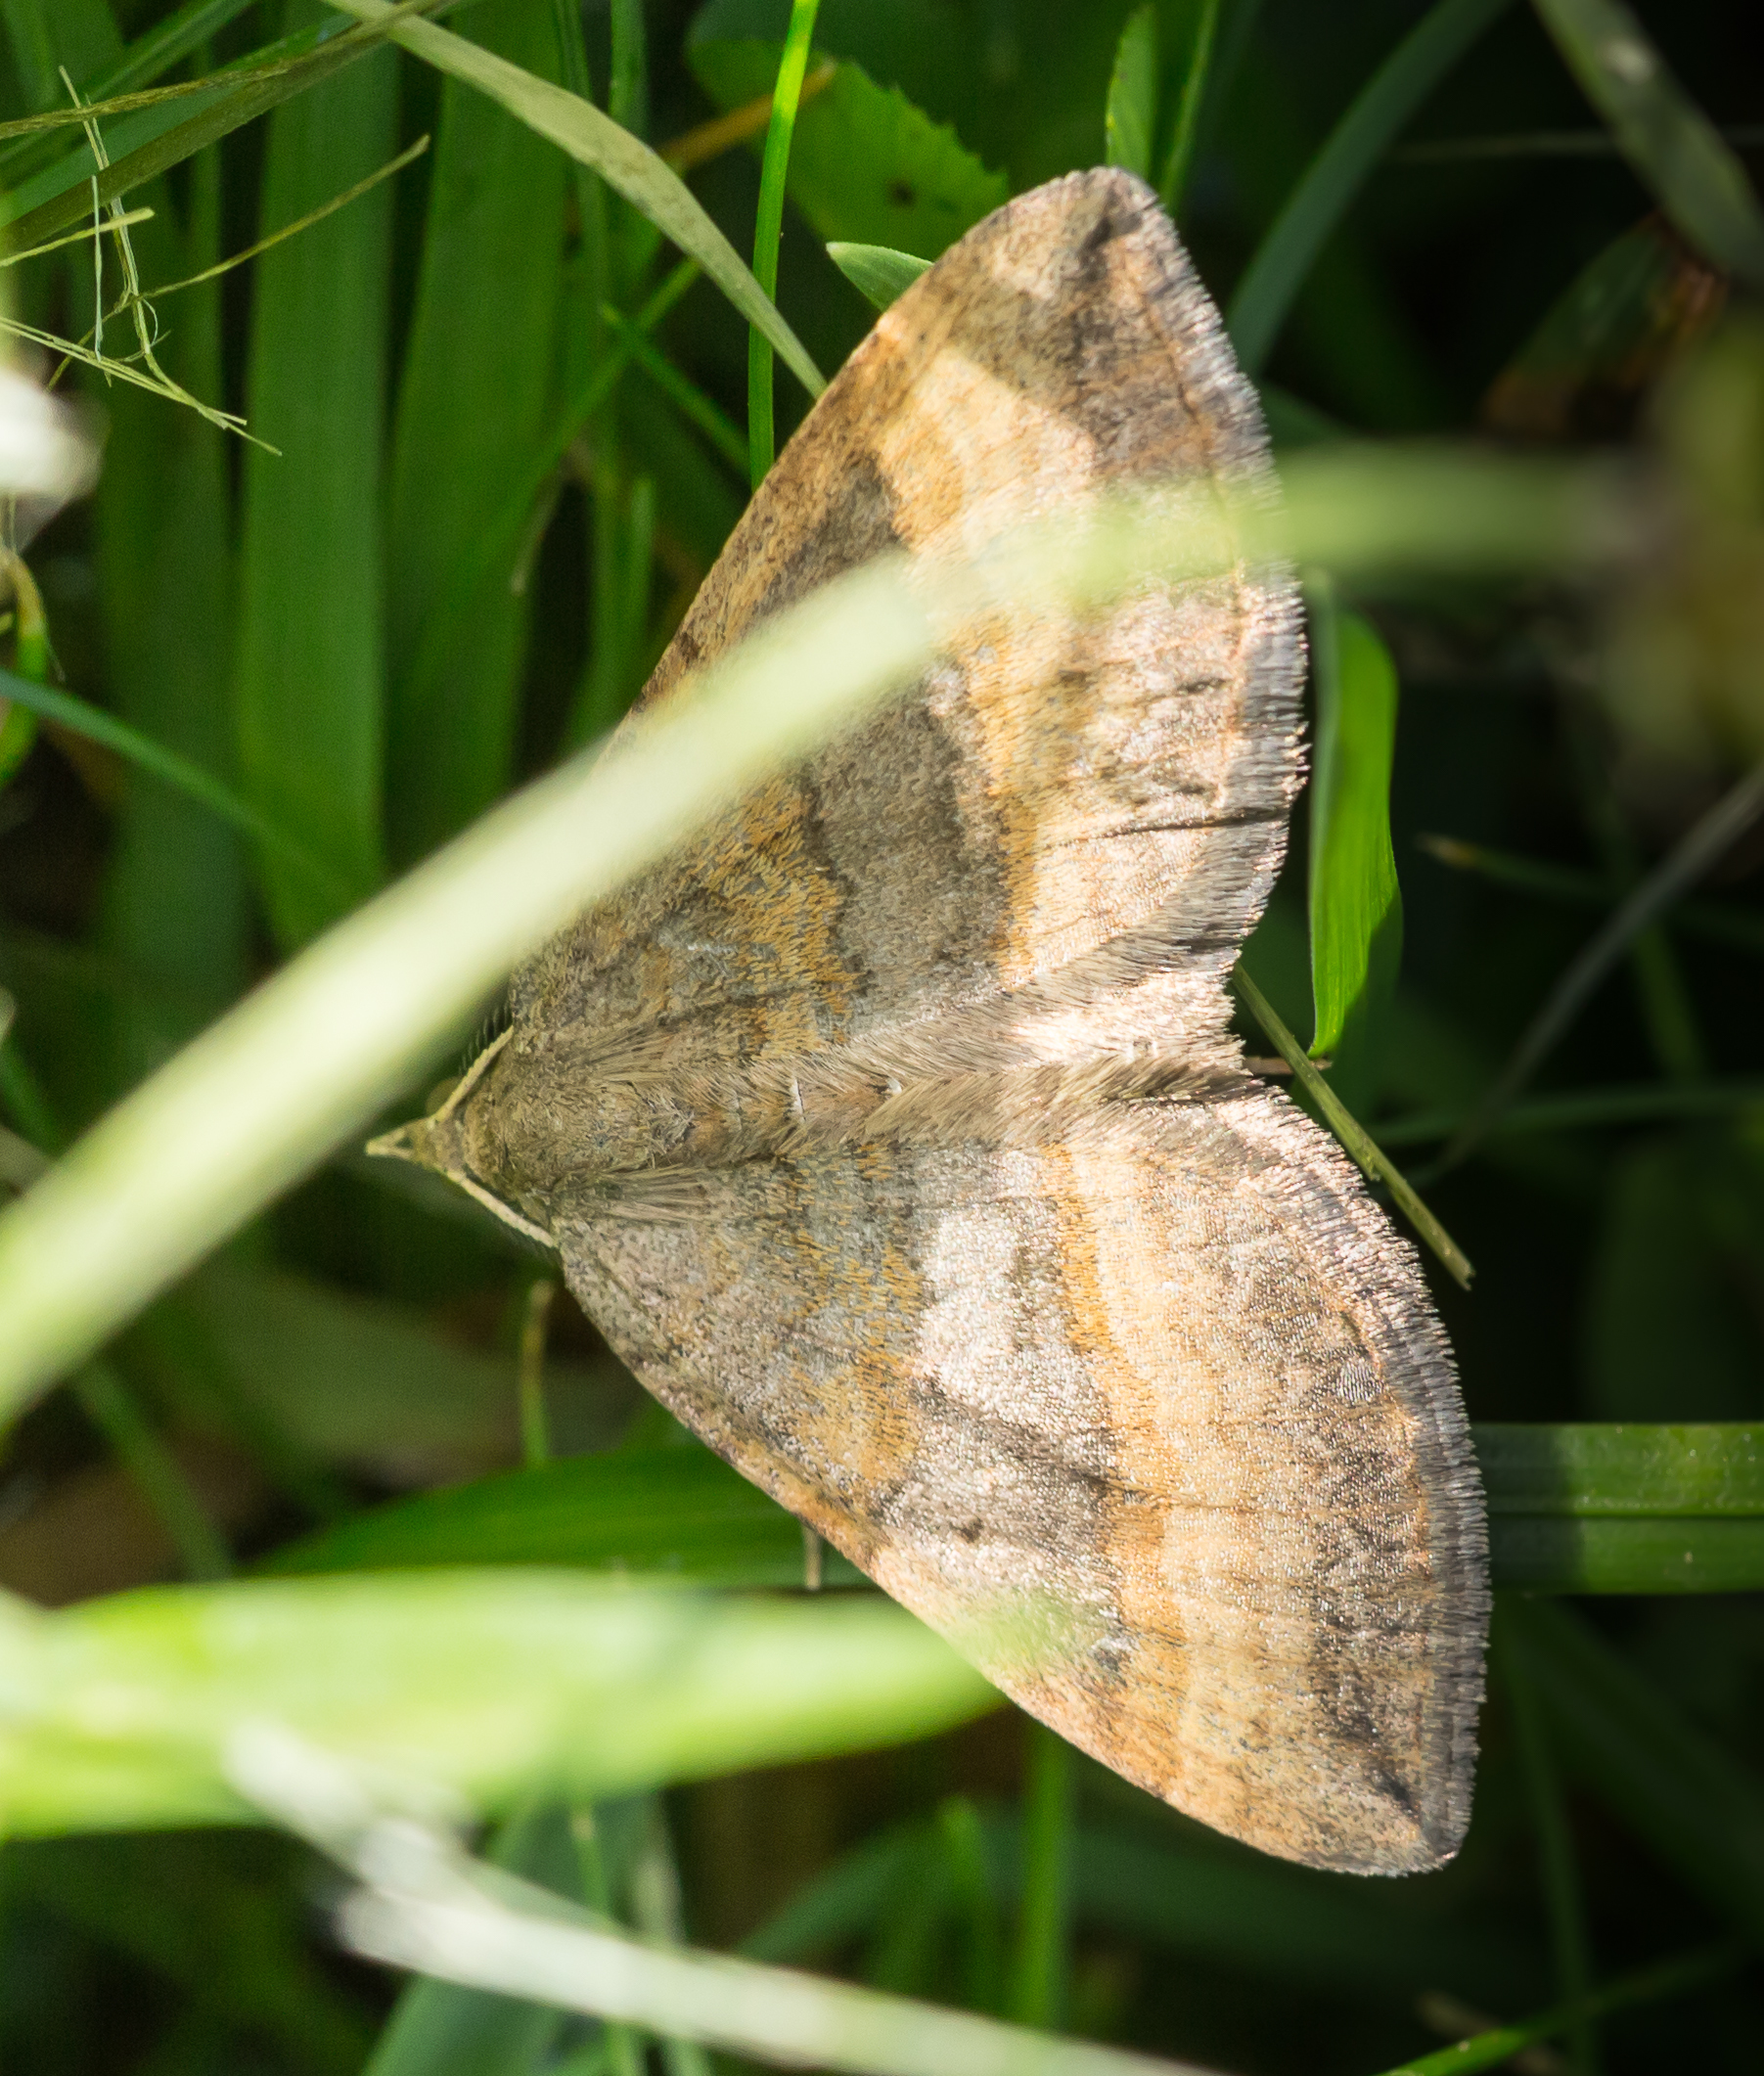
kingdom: Animalia
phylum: Arthropoda
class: Insecta
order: Lepidoptera
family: Geometridae
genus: Scotopteryx
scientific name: Scotopteryx chenopodiata
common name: Shaded broad-bar
